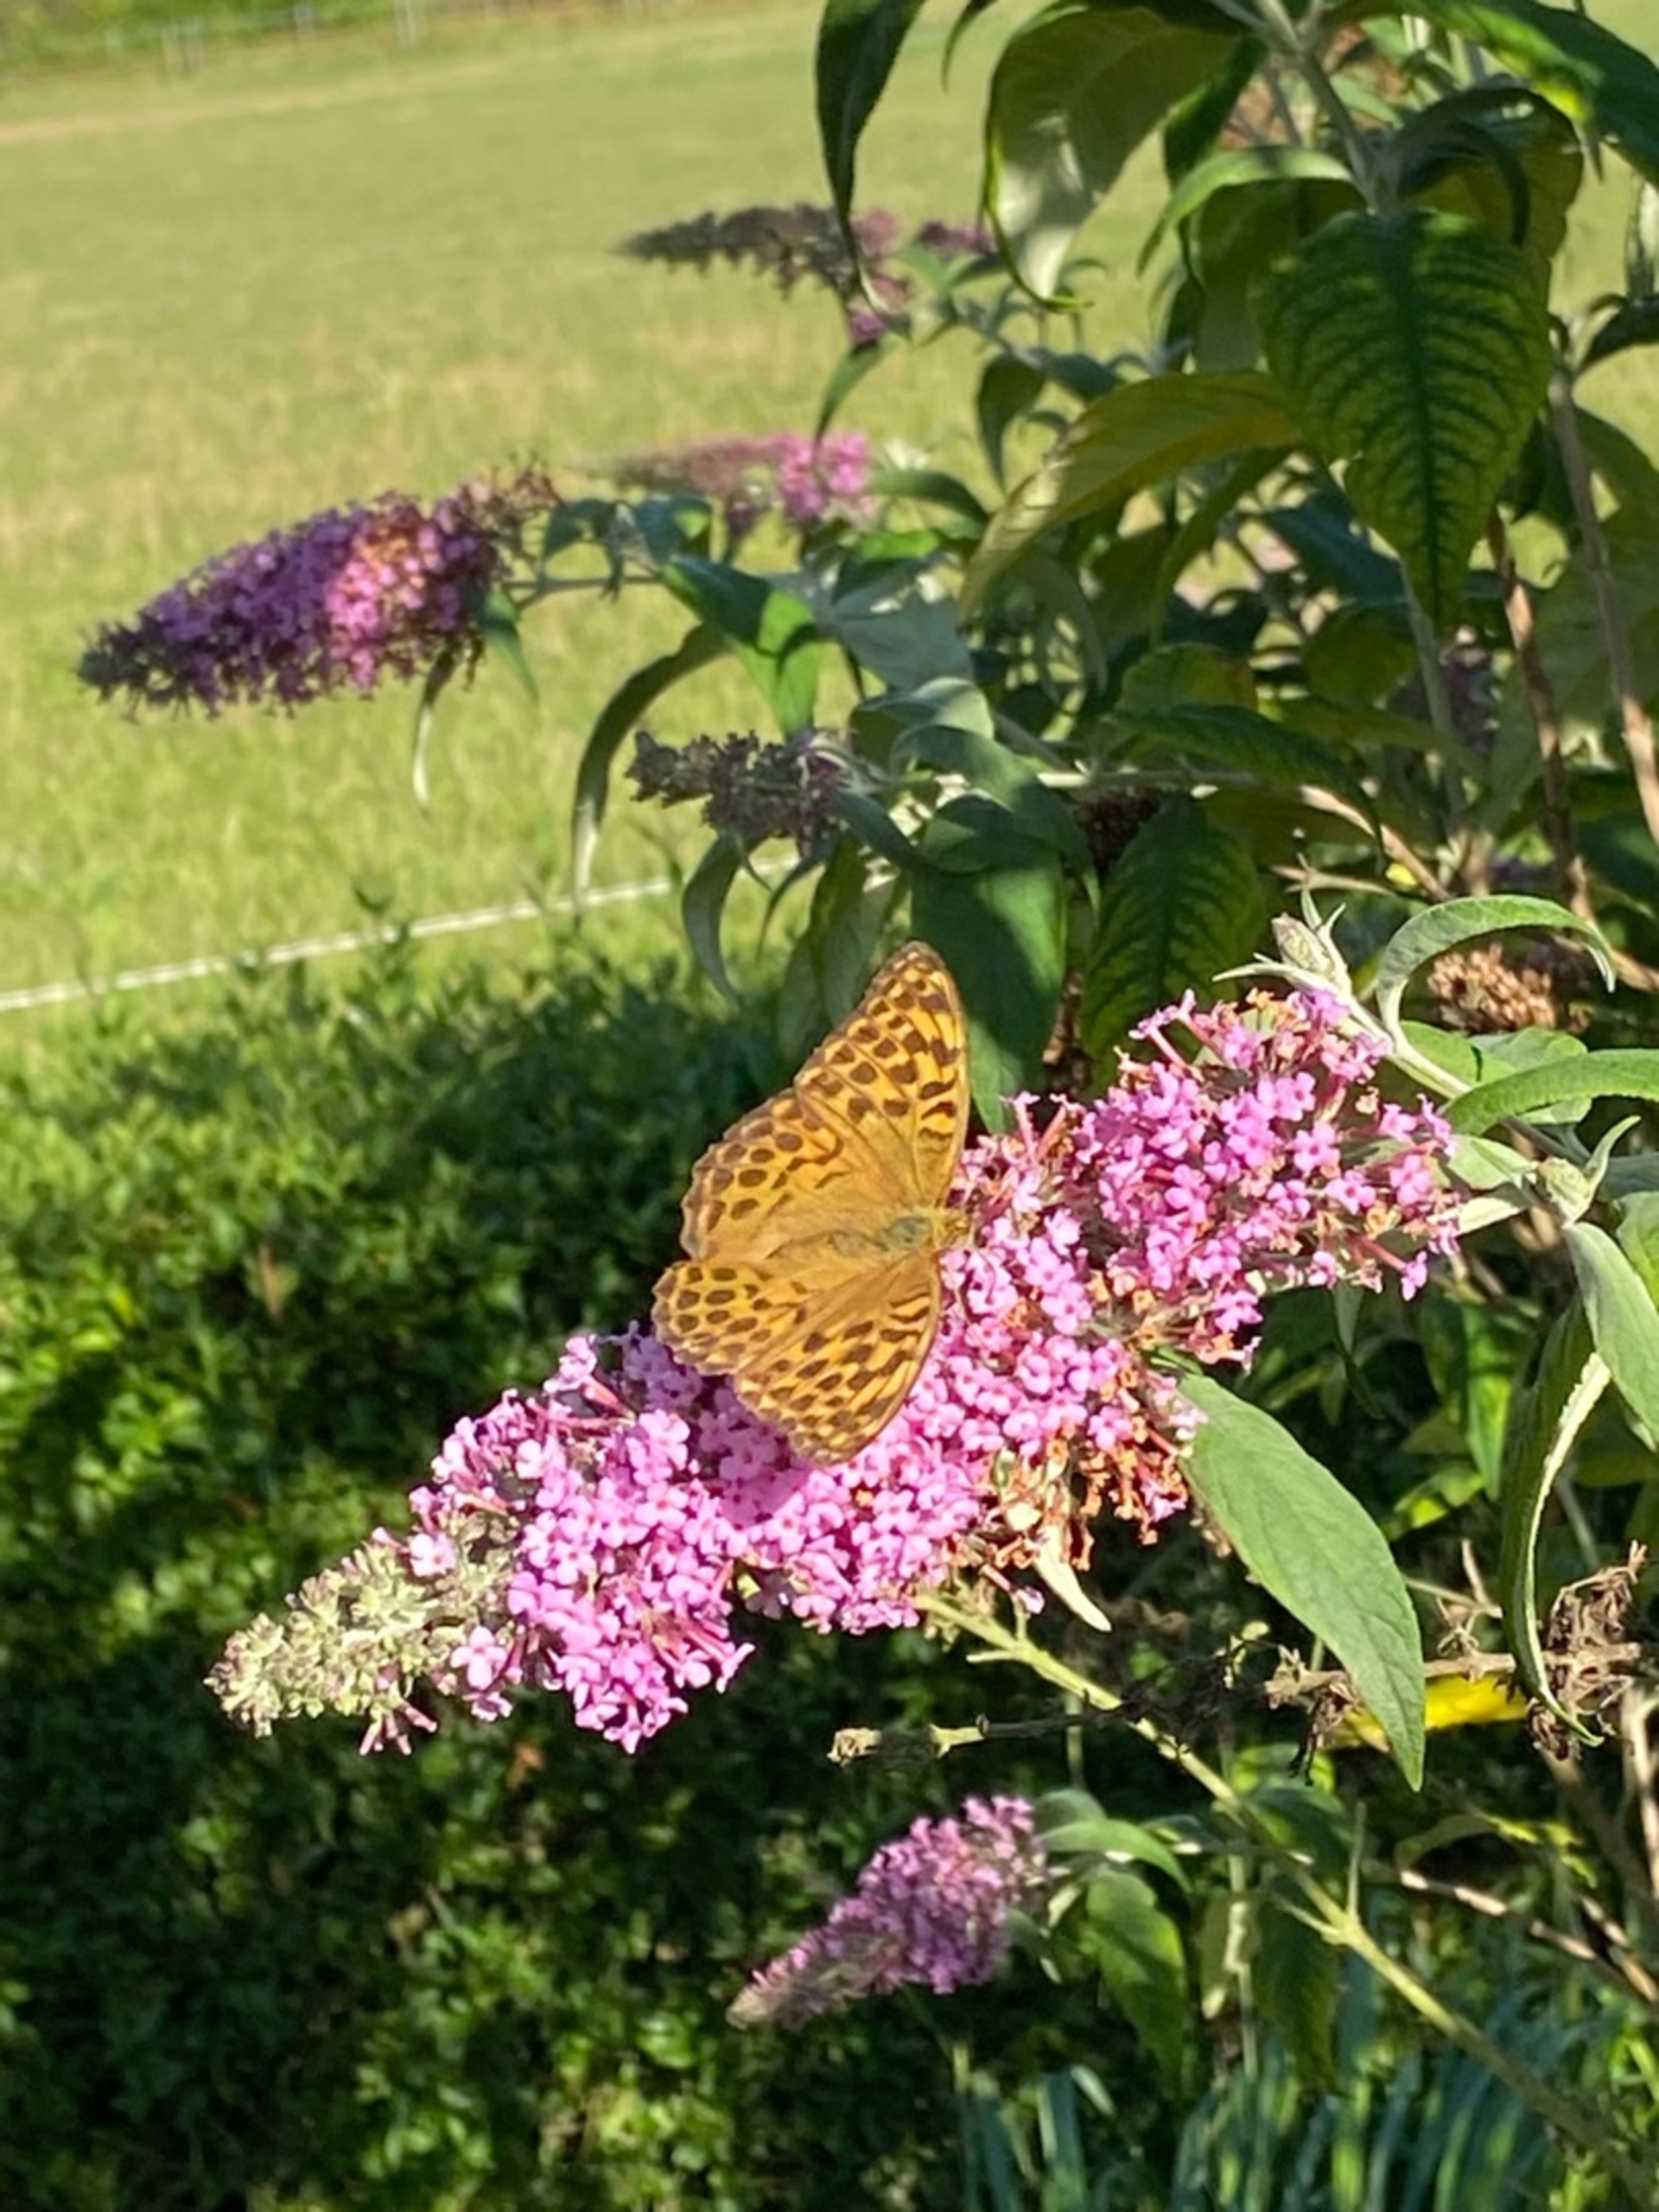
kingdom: Animalia
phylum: Arthropoda
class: Insecta
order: Lepidoptera
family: Nymphalidae
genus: Argynnis
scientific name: Argynnis paphia
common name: Kejserkåbe
